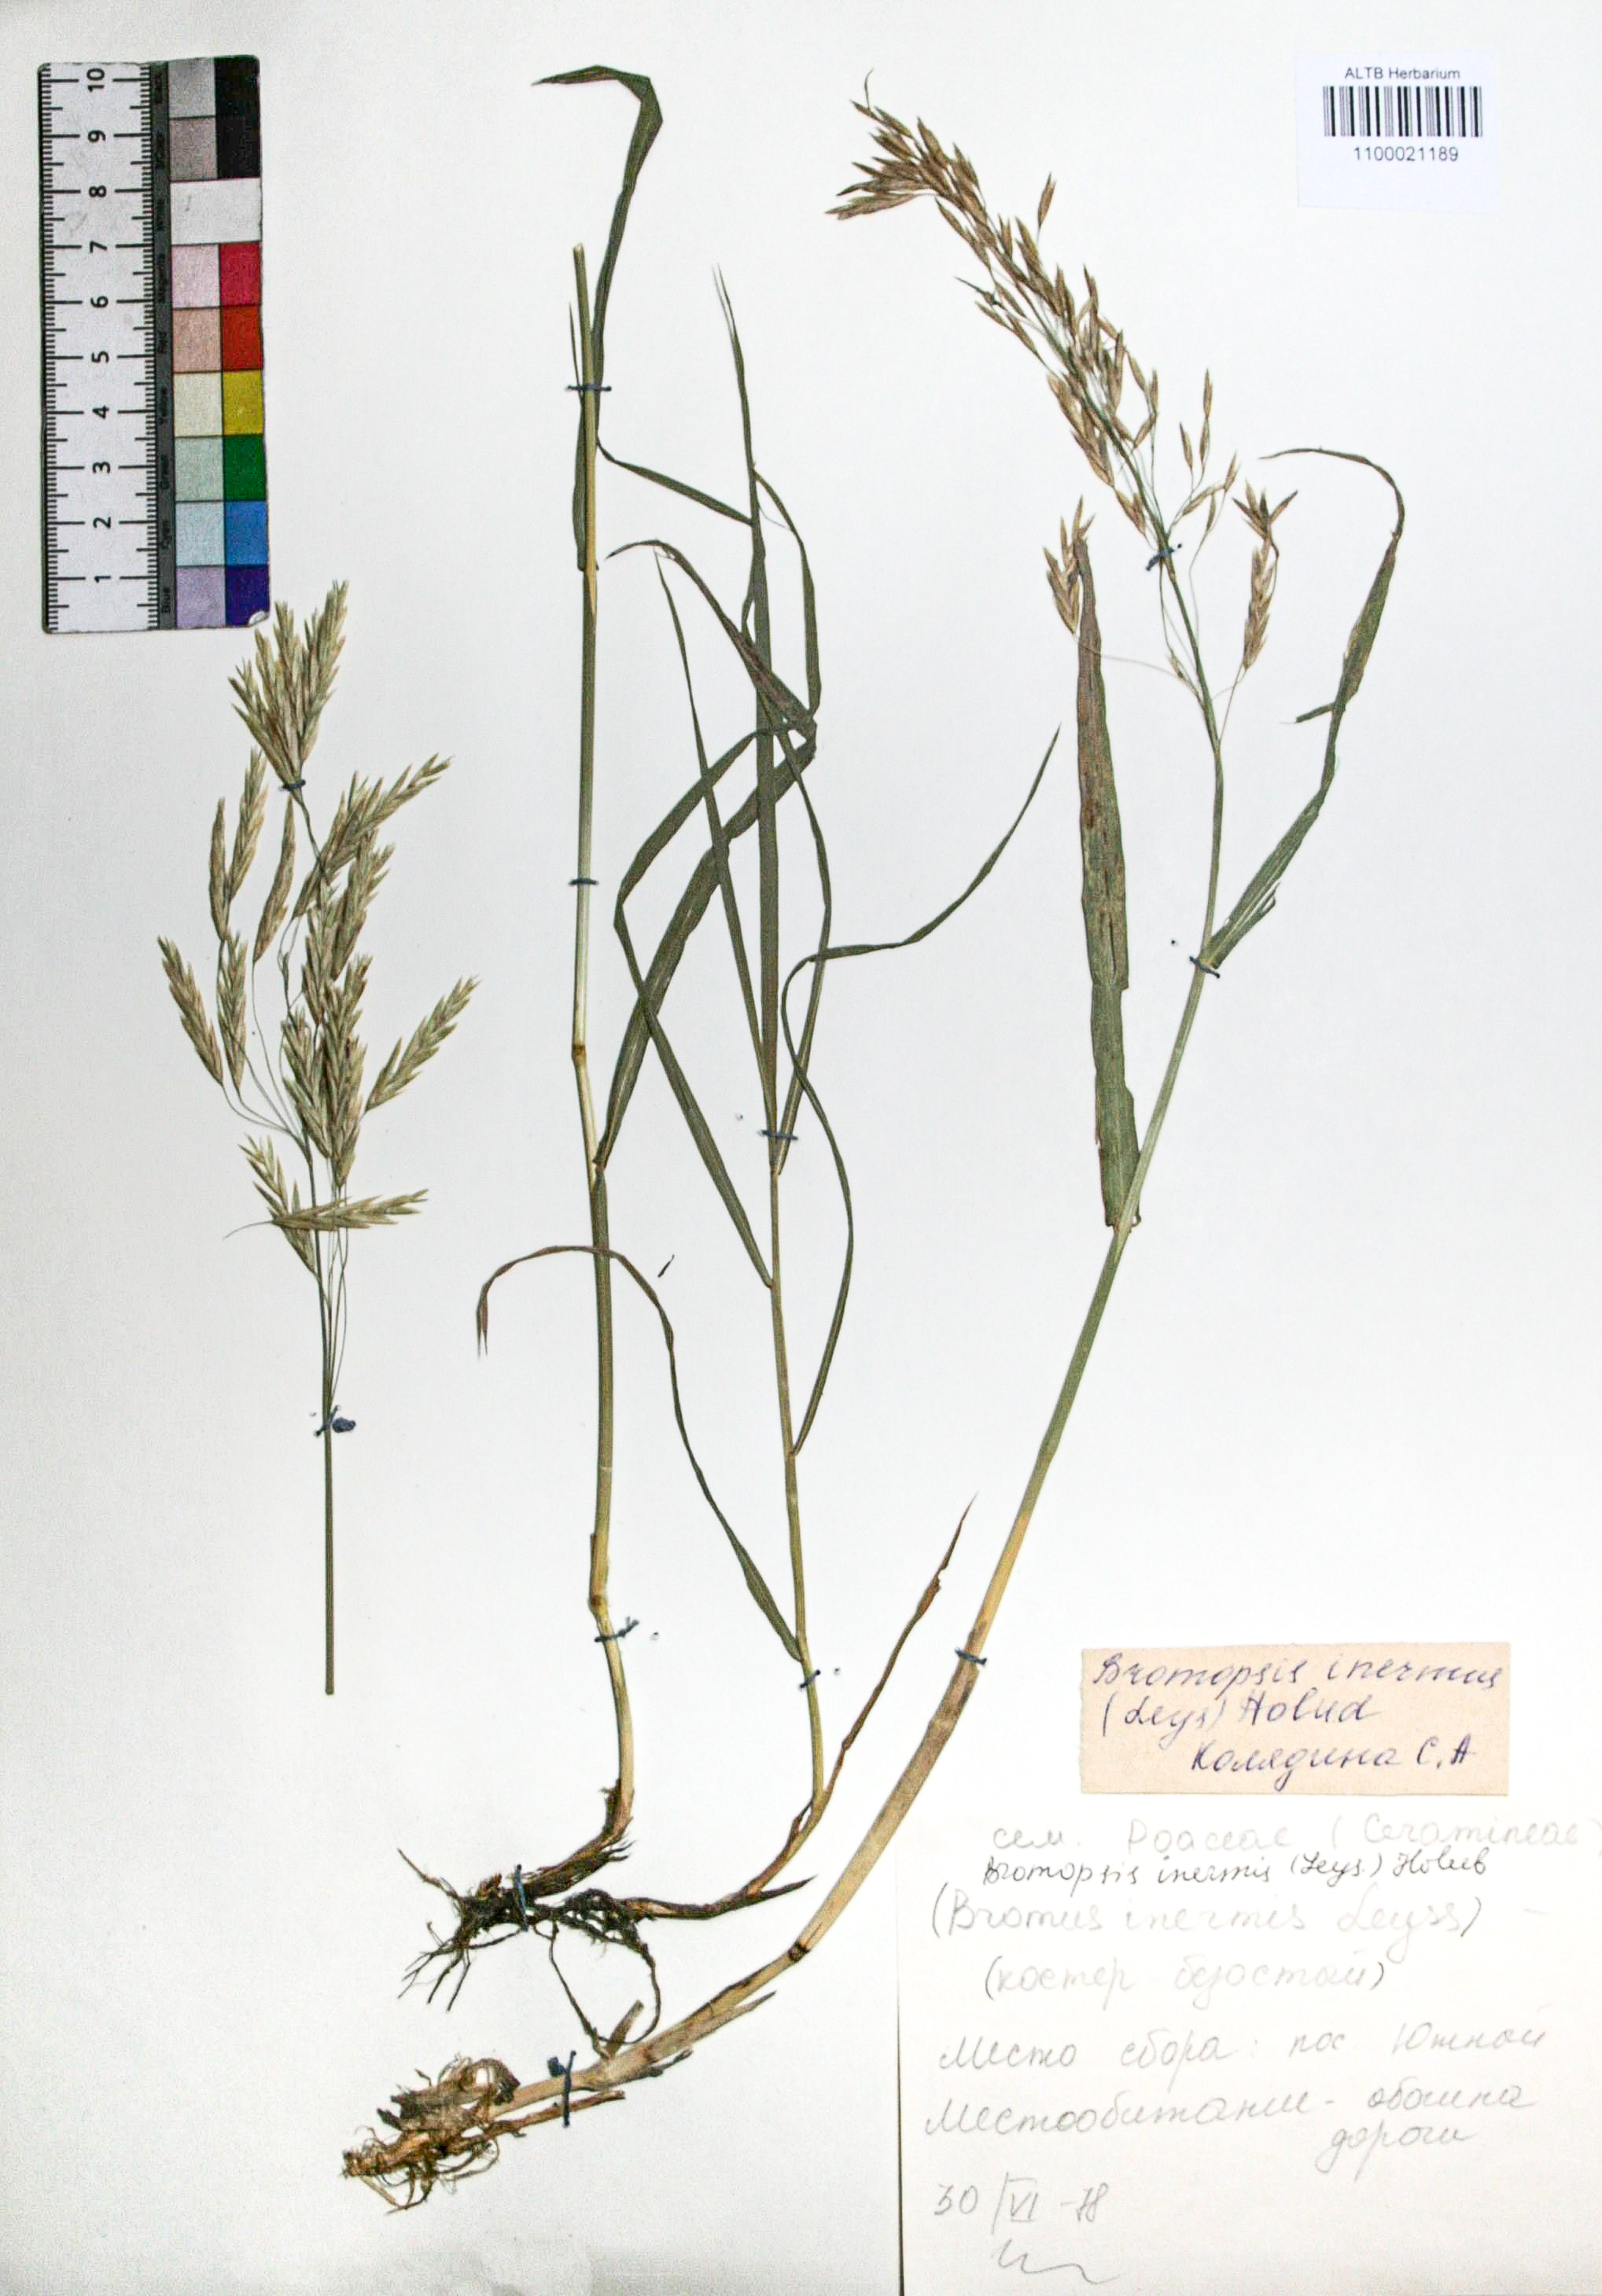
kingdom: Plantae
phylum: Tracheophyta
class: Liliopsida
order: Poales
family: Poaceae
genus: Bromus
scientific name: Bromus inermis
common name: Smooth brome
